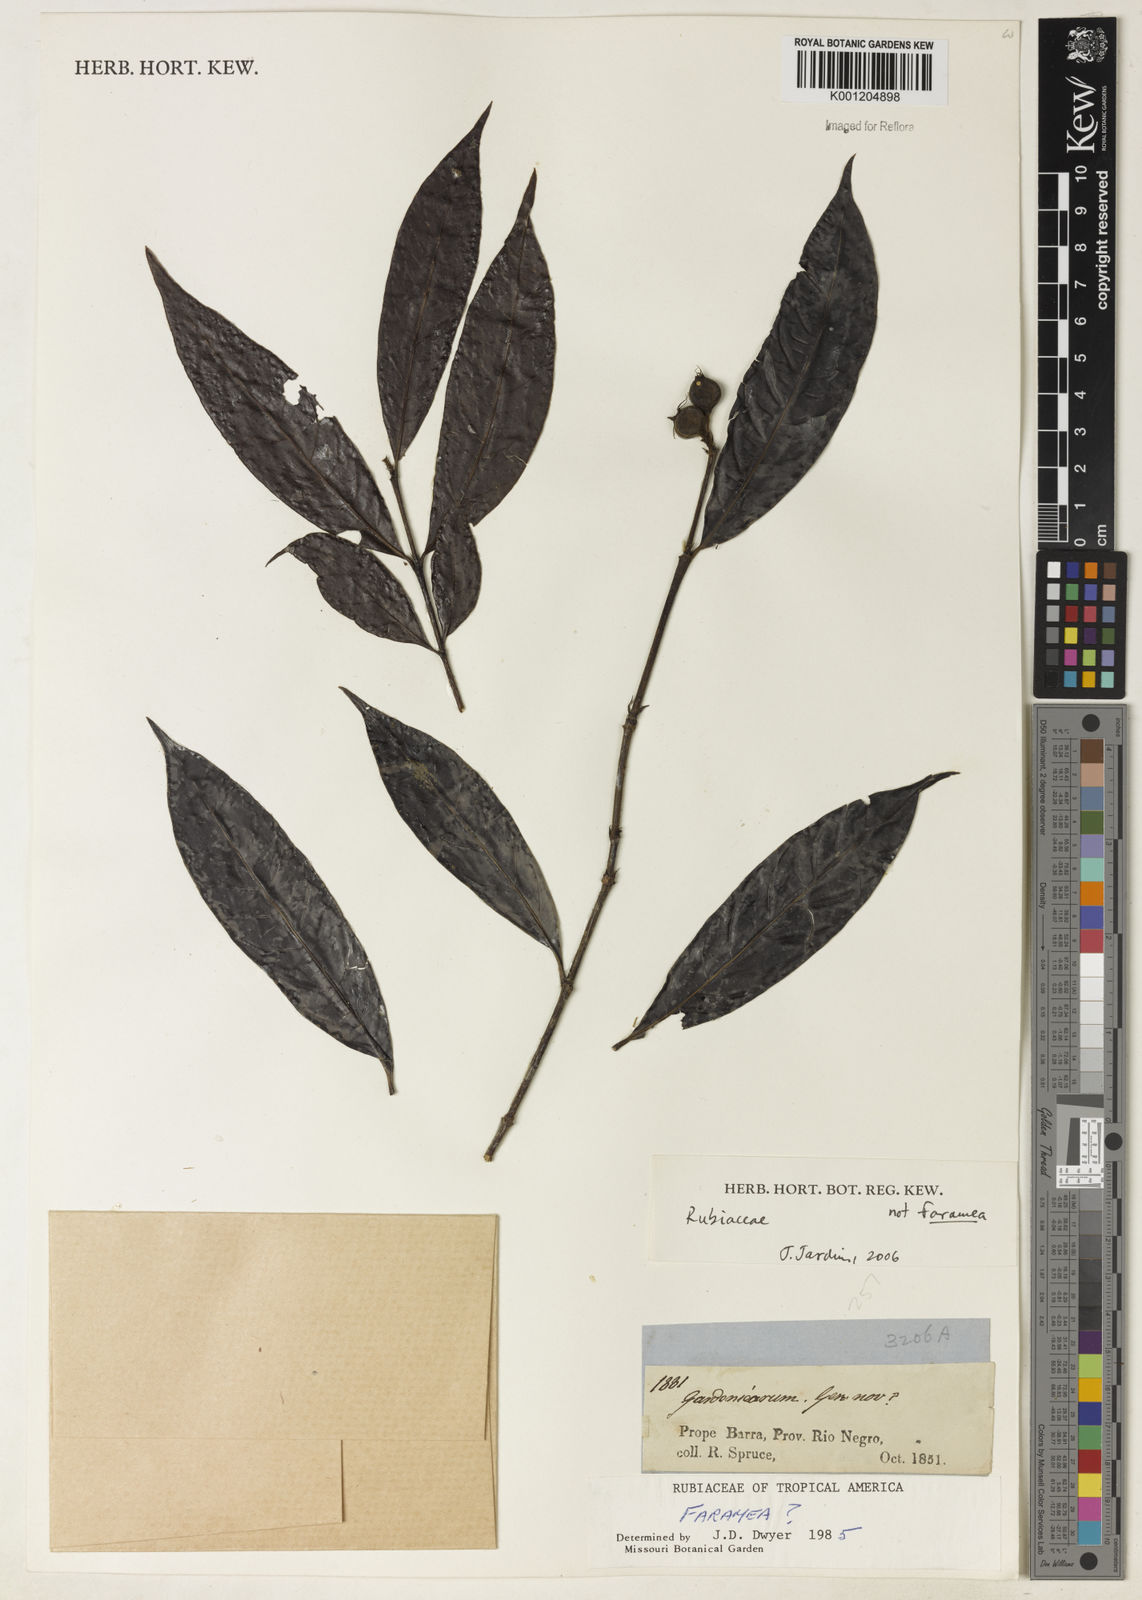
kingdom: Plantae
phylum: Tracheophyta
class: Magnoliopsida
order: Gentianales
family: Rubiaceae
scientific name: Rubiaceae
